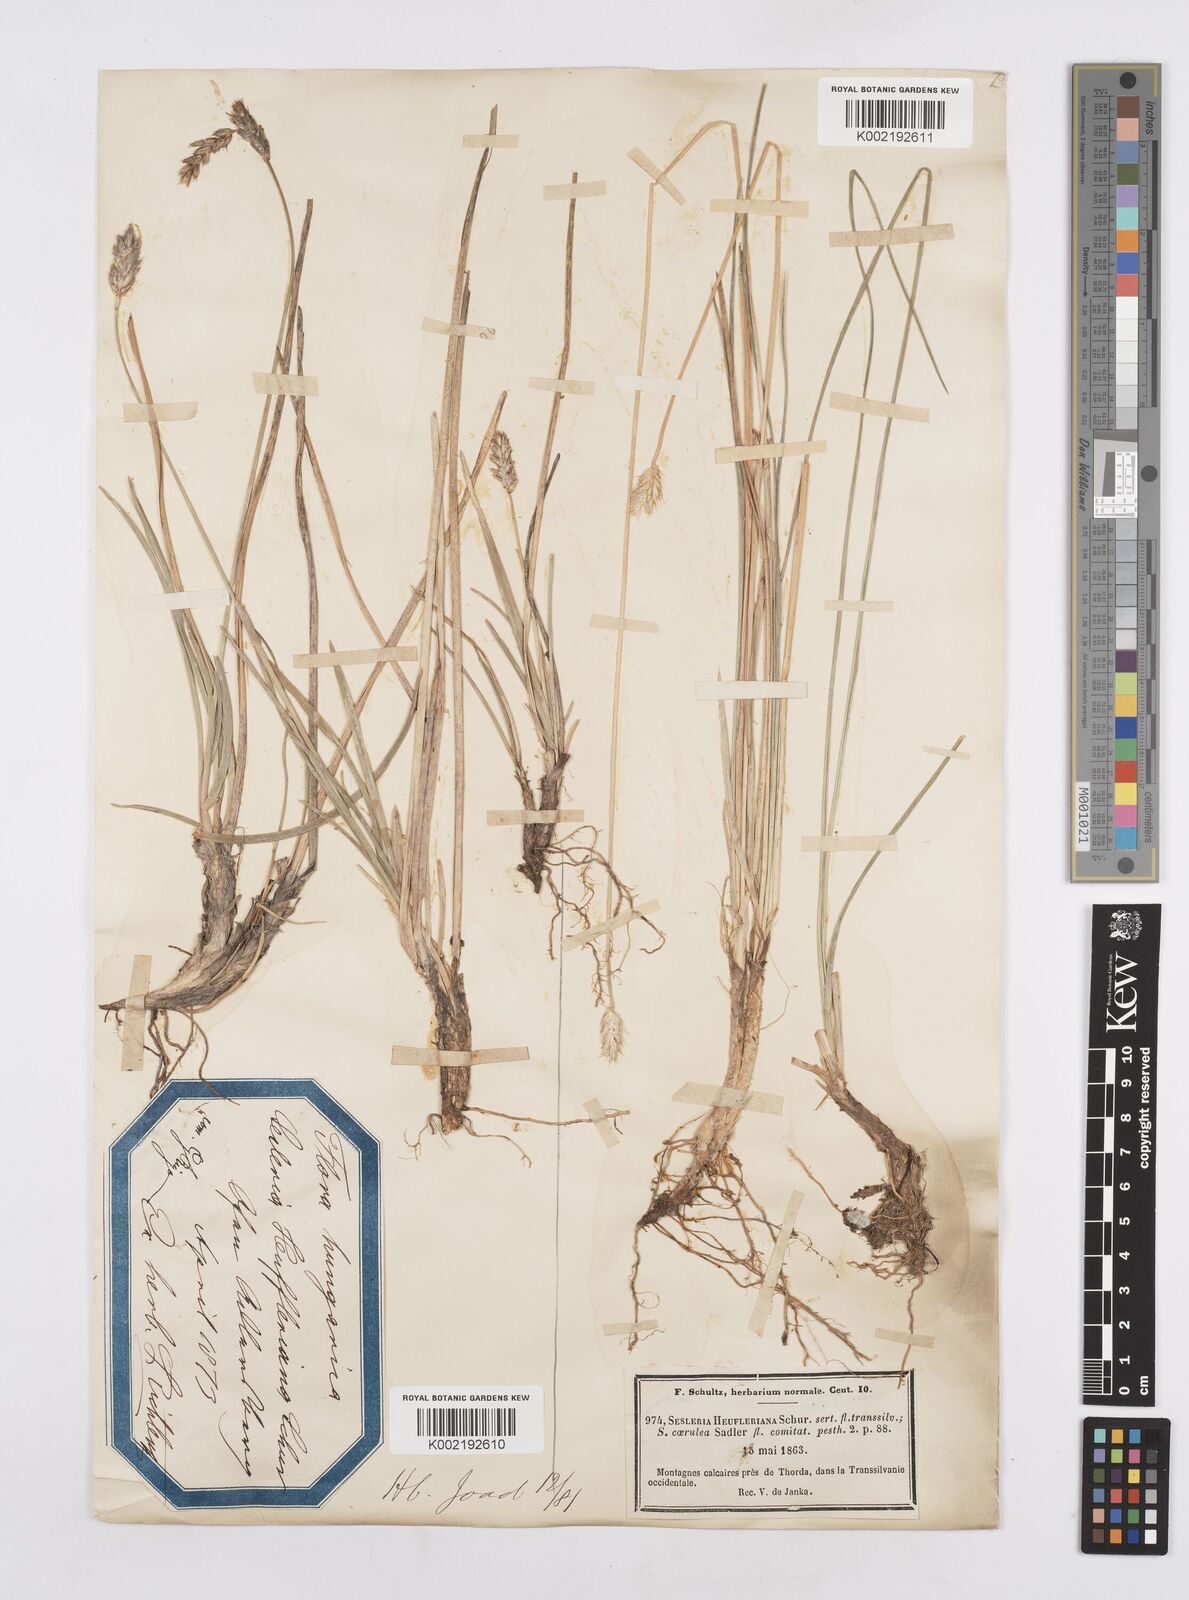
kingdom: Plantae
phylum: Tracheophyta
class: Liliopsida
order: Poales
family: Poaceae
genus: Sesleria
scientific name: Sesleria heufleriana
